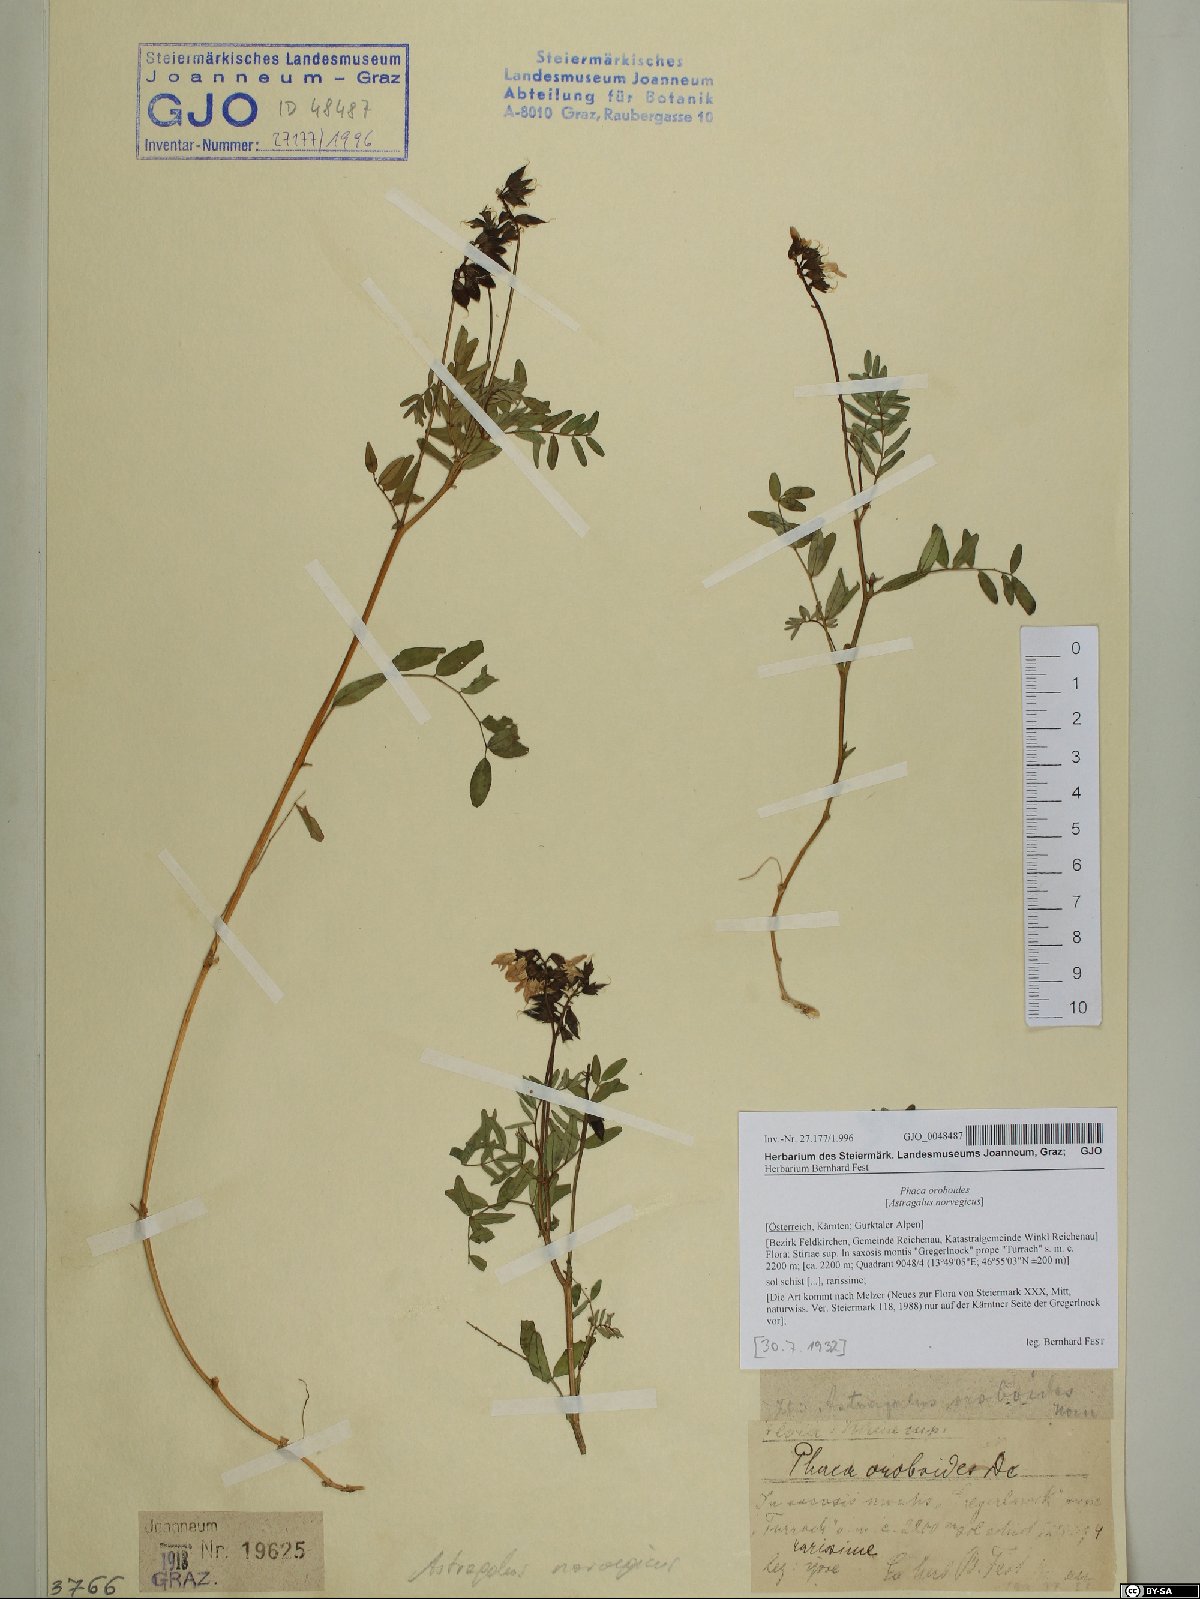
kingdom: Plantae
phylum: Tracheophyta
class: Magnoliopsida
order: Fabales
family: Fabaceae
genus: Astragalus
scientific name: Astragalus norvegicus
